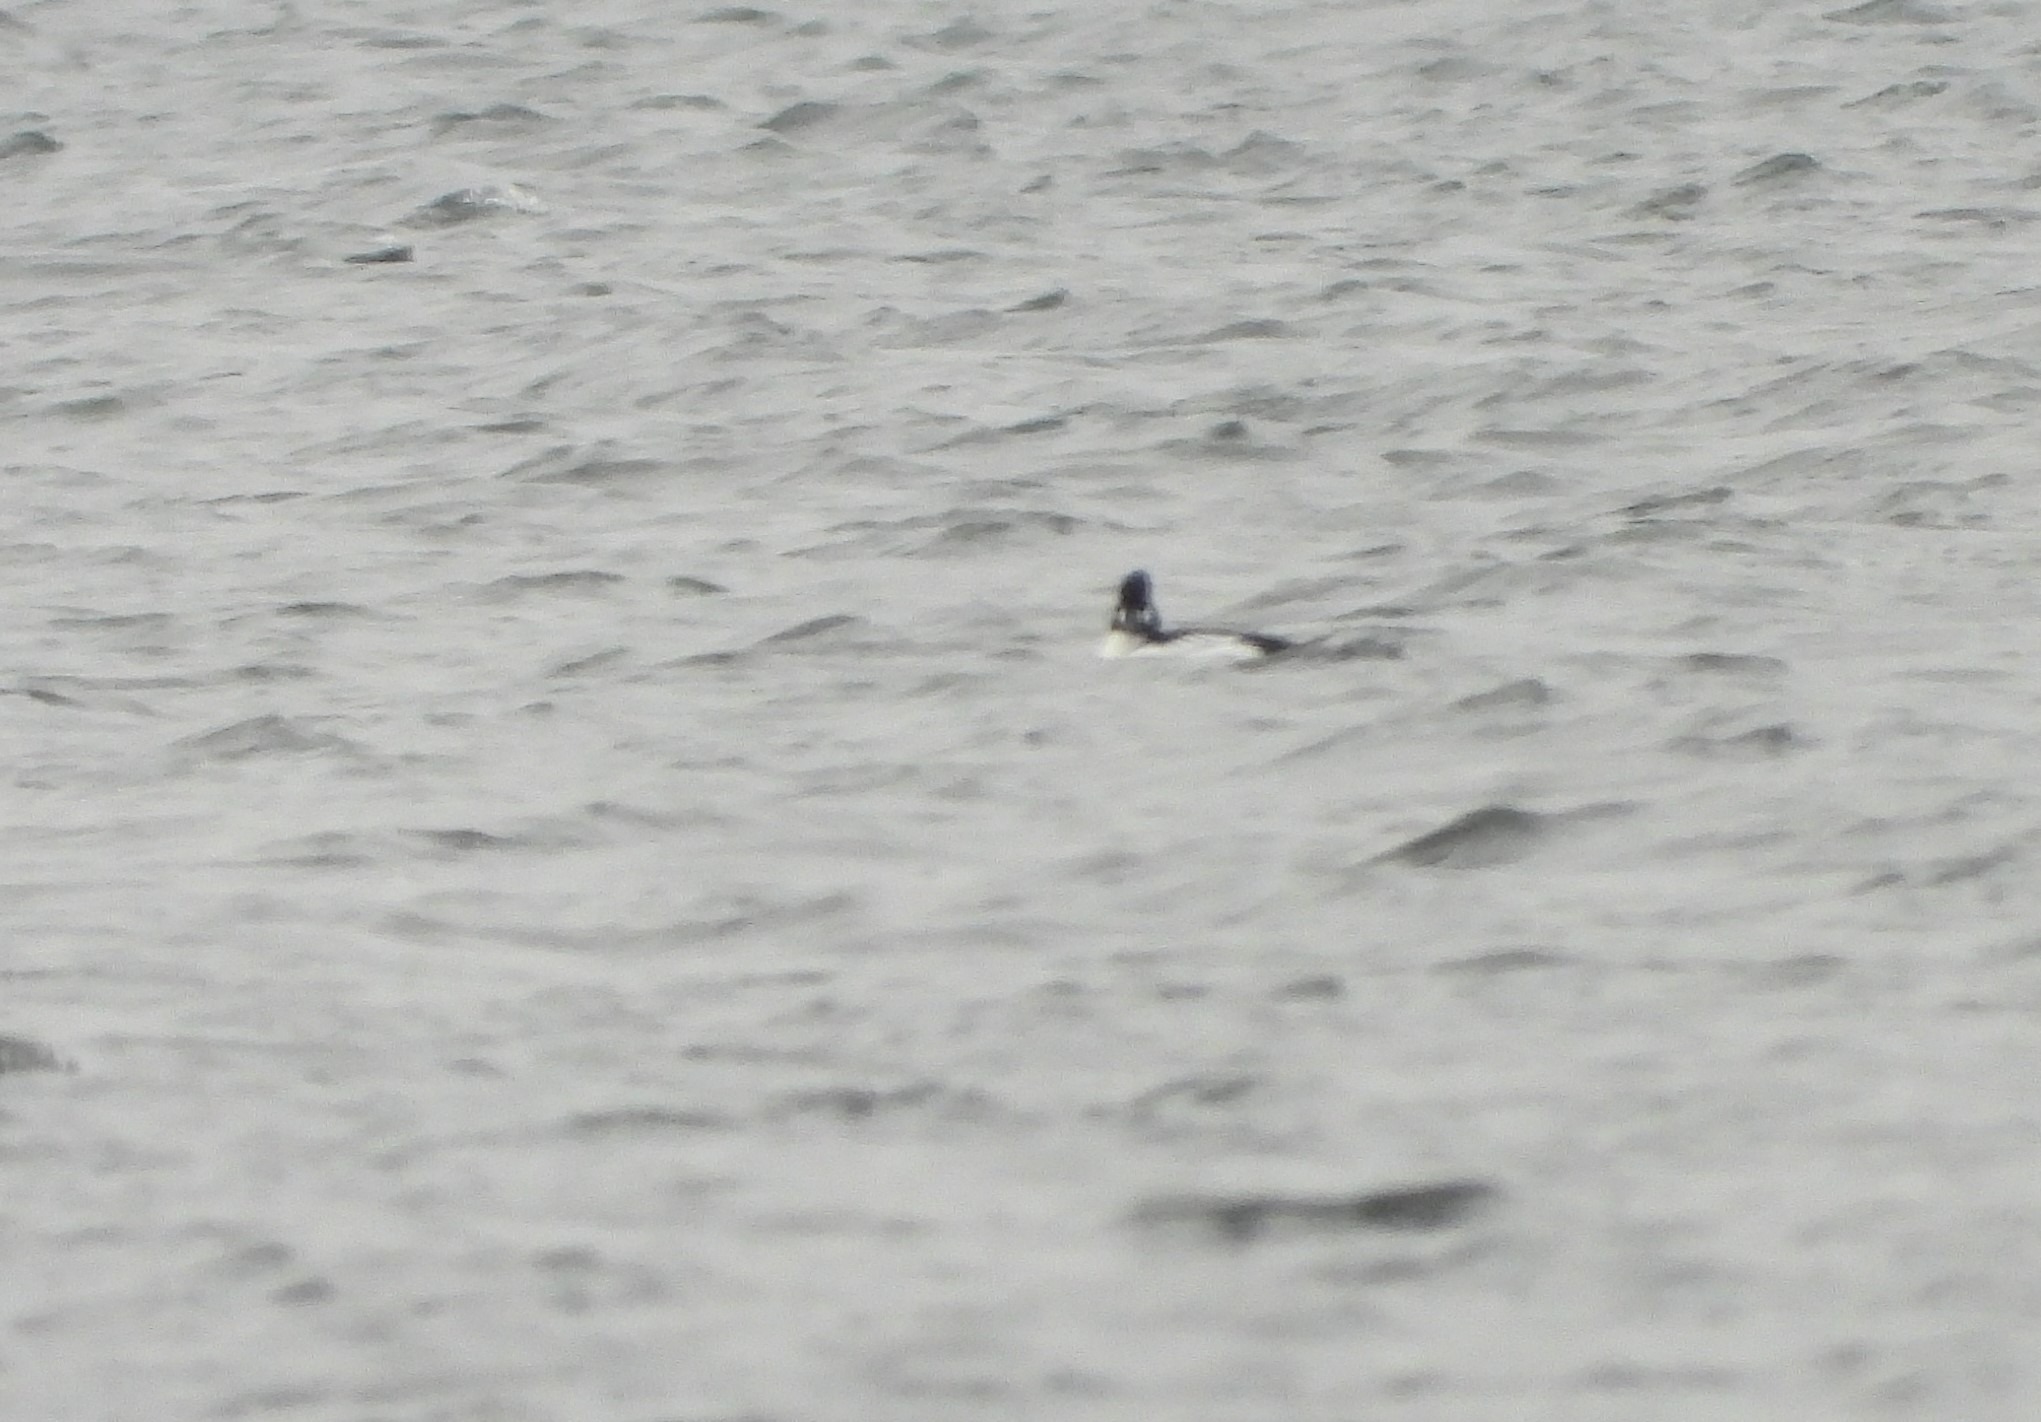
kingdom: Animalia
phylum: Chordata
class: Aves
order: Anseriformes
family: Anatidae
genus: Bucephala
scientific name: Bucephala clangula
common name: Hvinand
